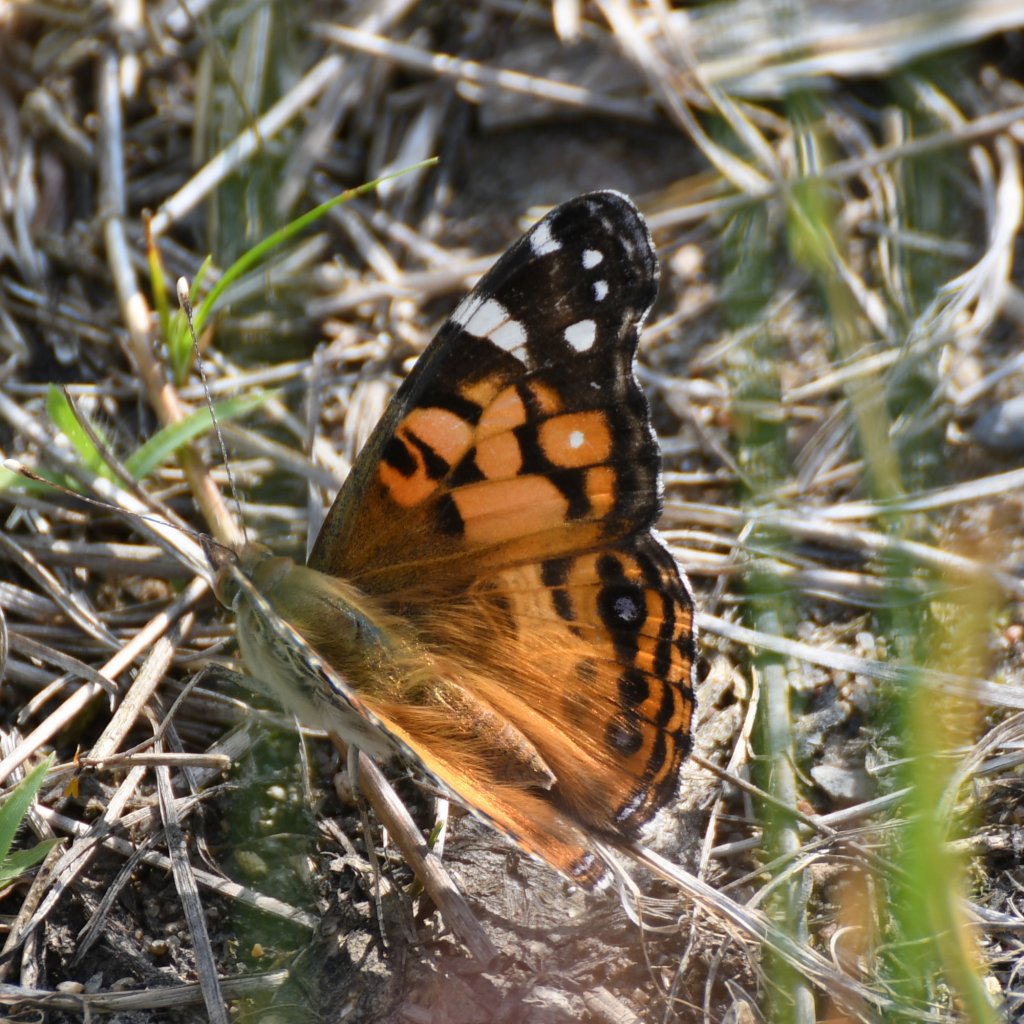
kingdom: Animalia
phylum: Arthropoda
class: Insecta
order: Lepidoptera
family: Nymphalidae
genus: Vanessa
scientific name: Vanessa virginiensis
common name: American Lady
